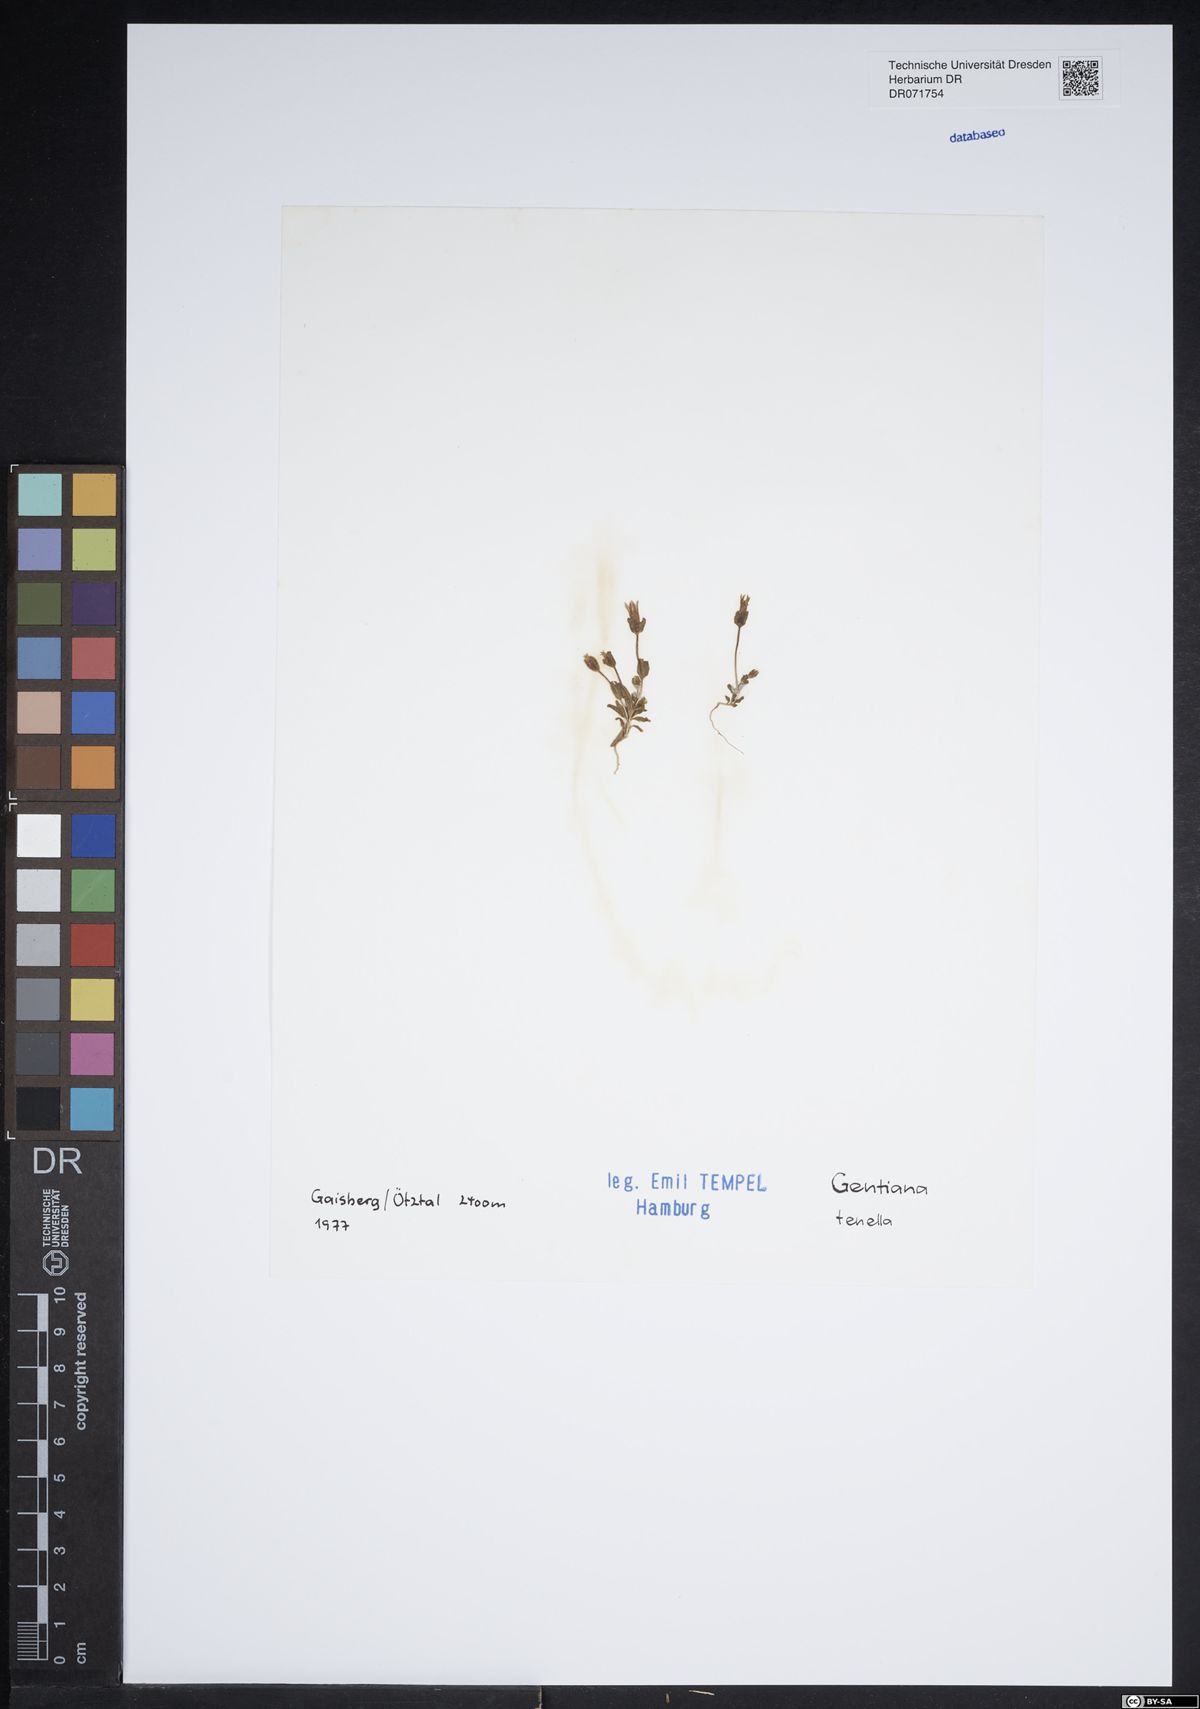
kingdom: Plantae
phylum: Tracheophyta
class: Magnoliopsida
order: Gentianales
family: Gentianaceae
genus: Comastoma
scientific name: Comastoma tenellum
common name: Dane's dwarf gentian
